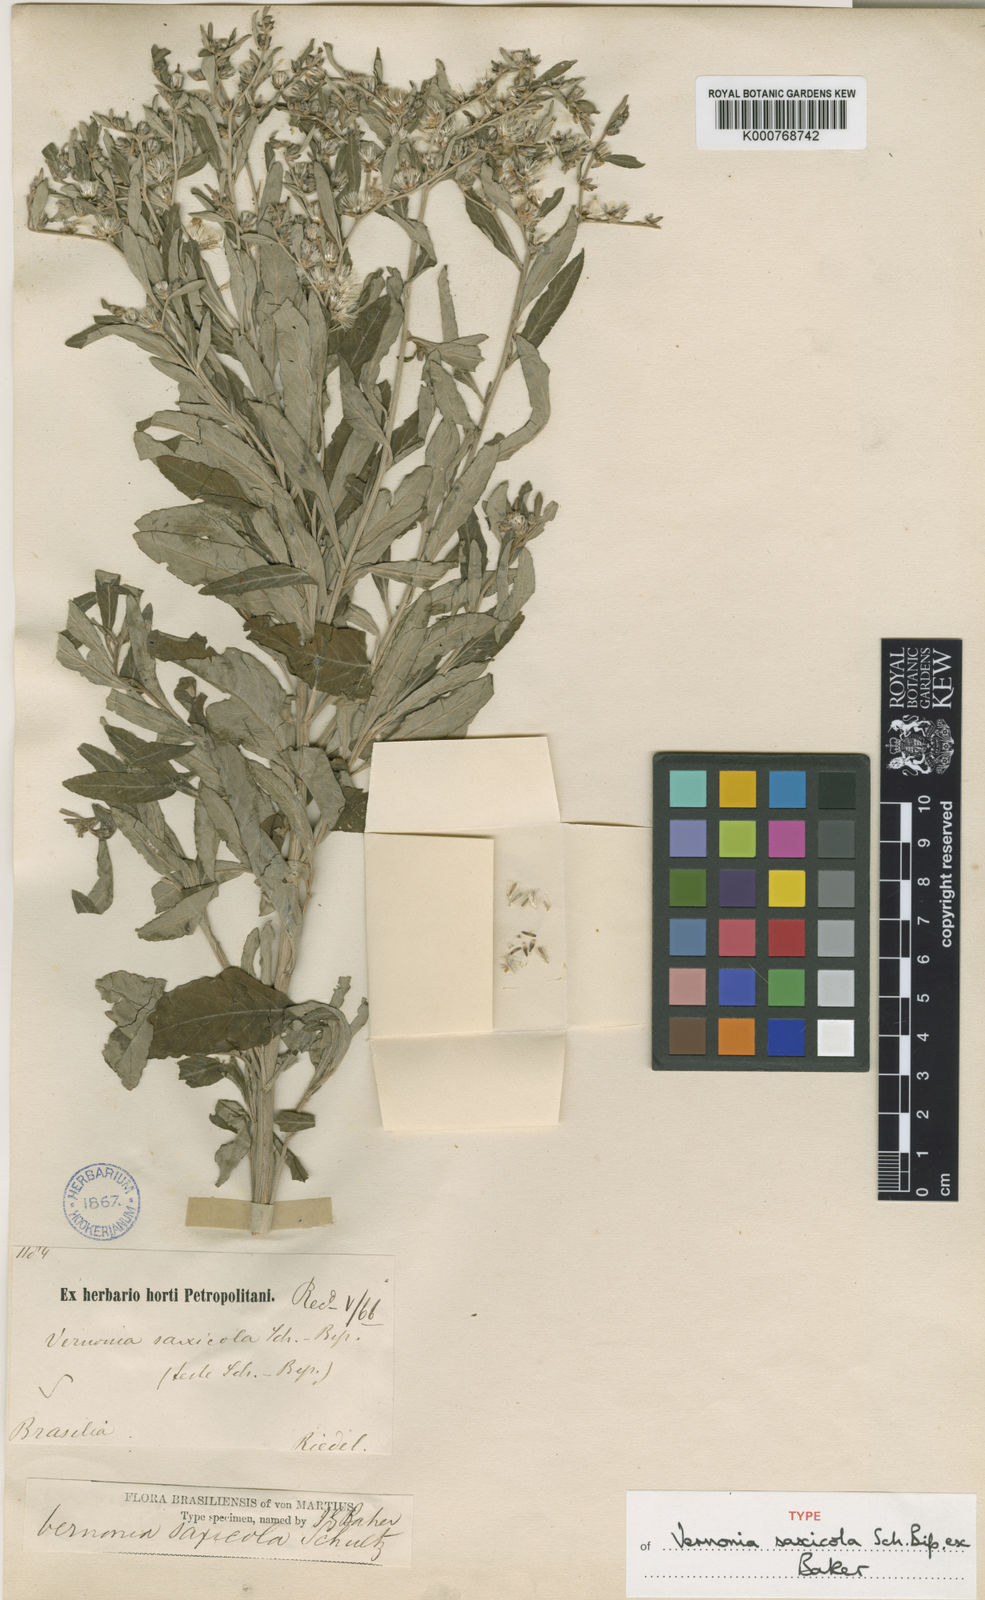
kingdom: Plantae
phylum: Tracheophyta
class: Magnoliopsida
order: Asterales
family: Asteraceae
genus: Lepidaploa
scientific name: Lepidaploa rufogrisea
